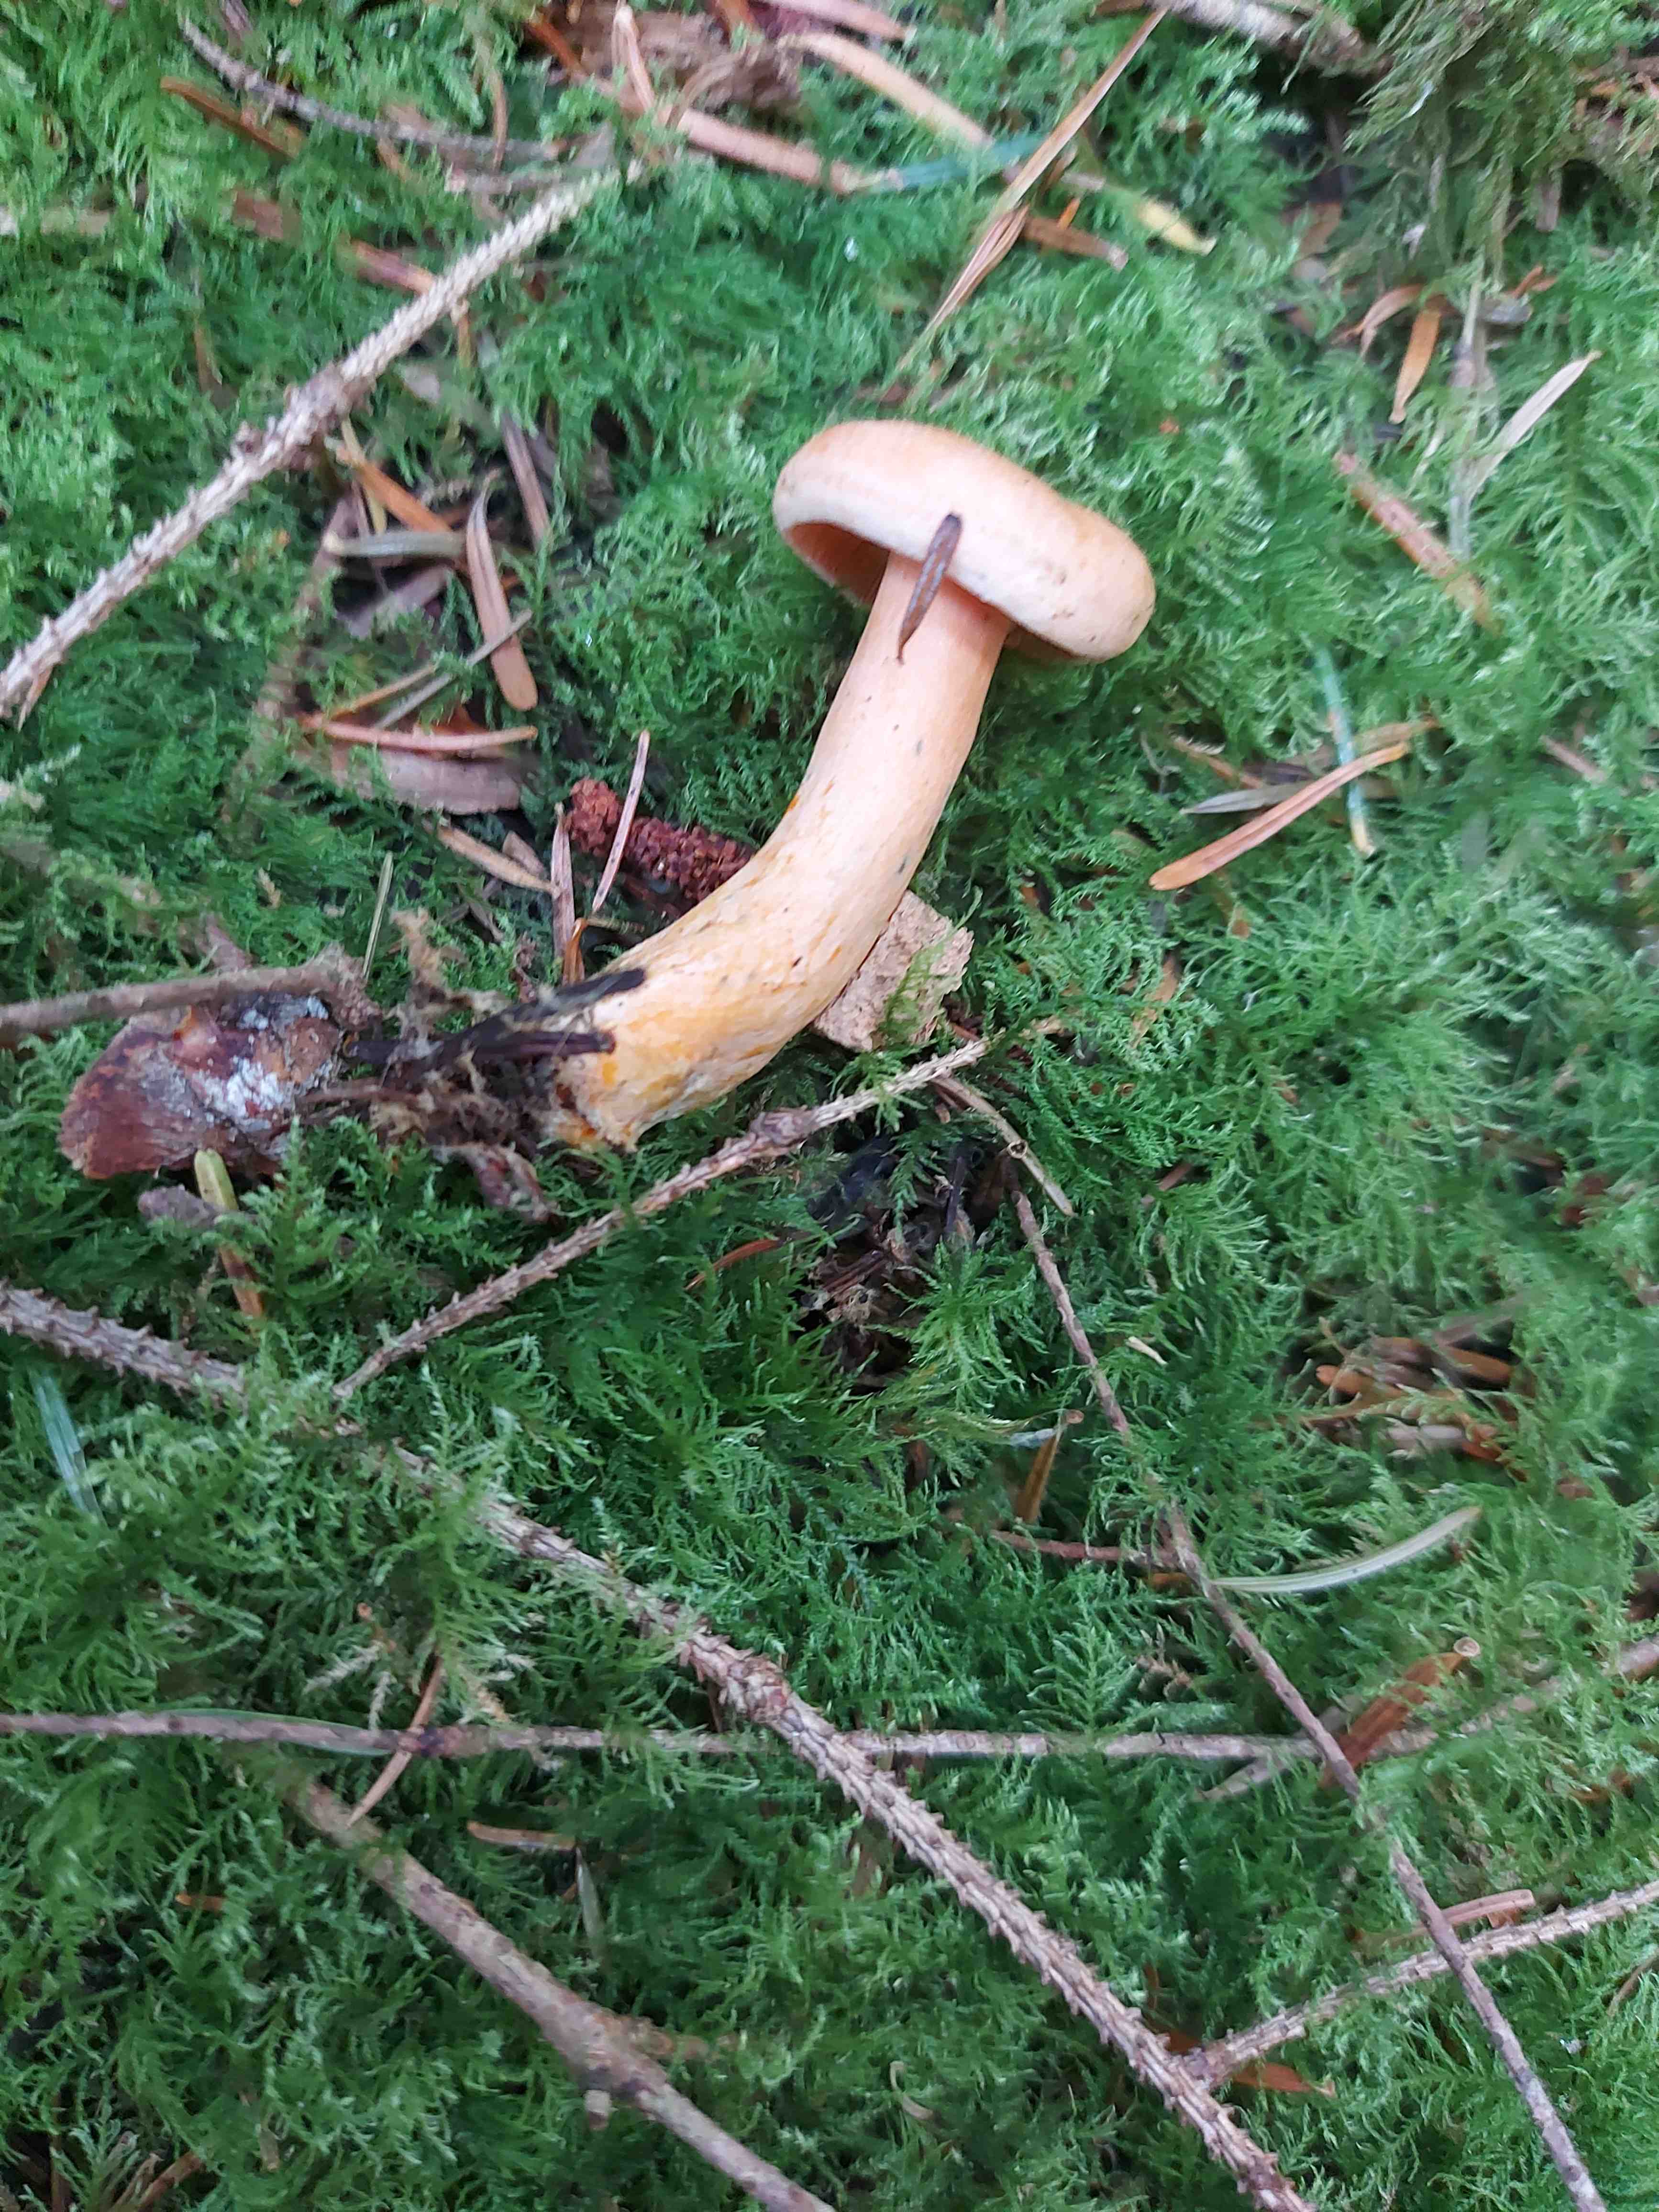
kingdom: Fungi
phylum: Basidiomycota
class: Agaricomycetes
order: Russulales
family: Russulaceae
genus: Lactarius
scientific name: Lactarius deterrimus
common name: gran-mælkehat
